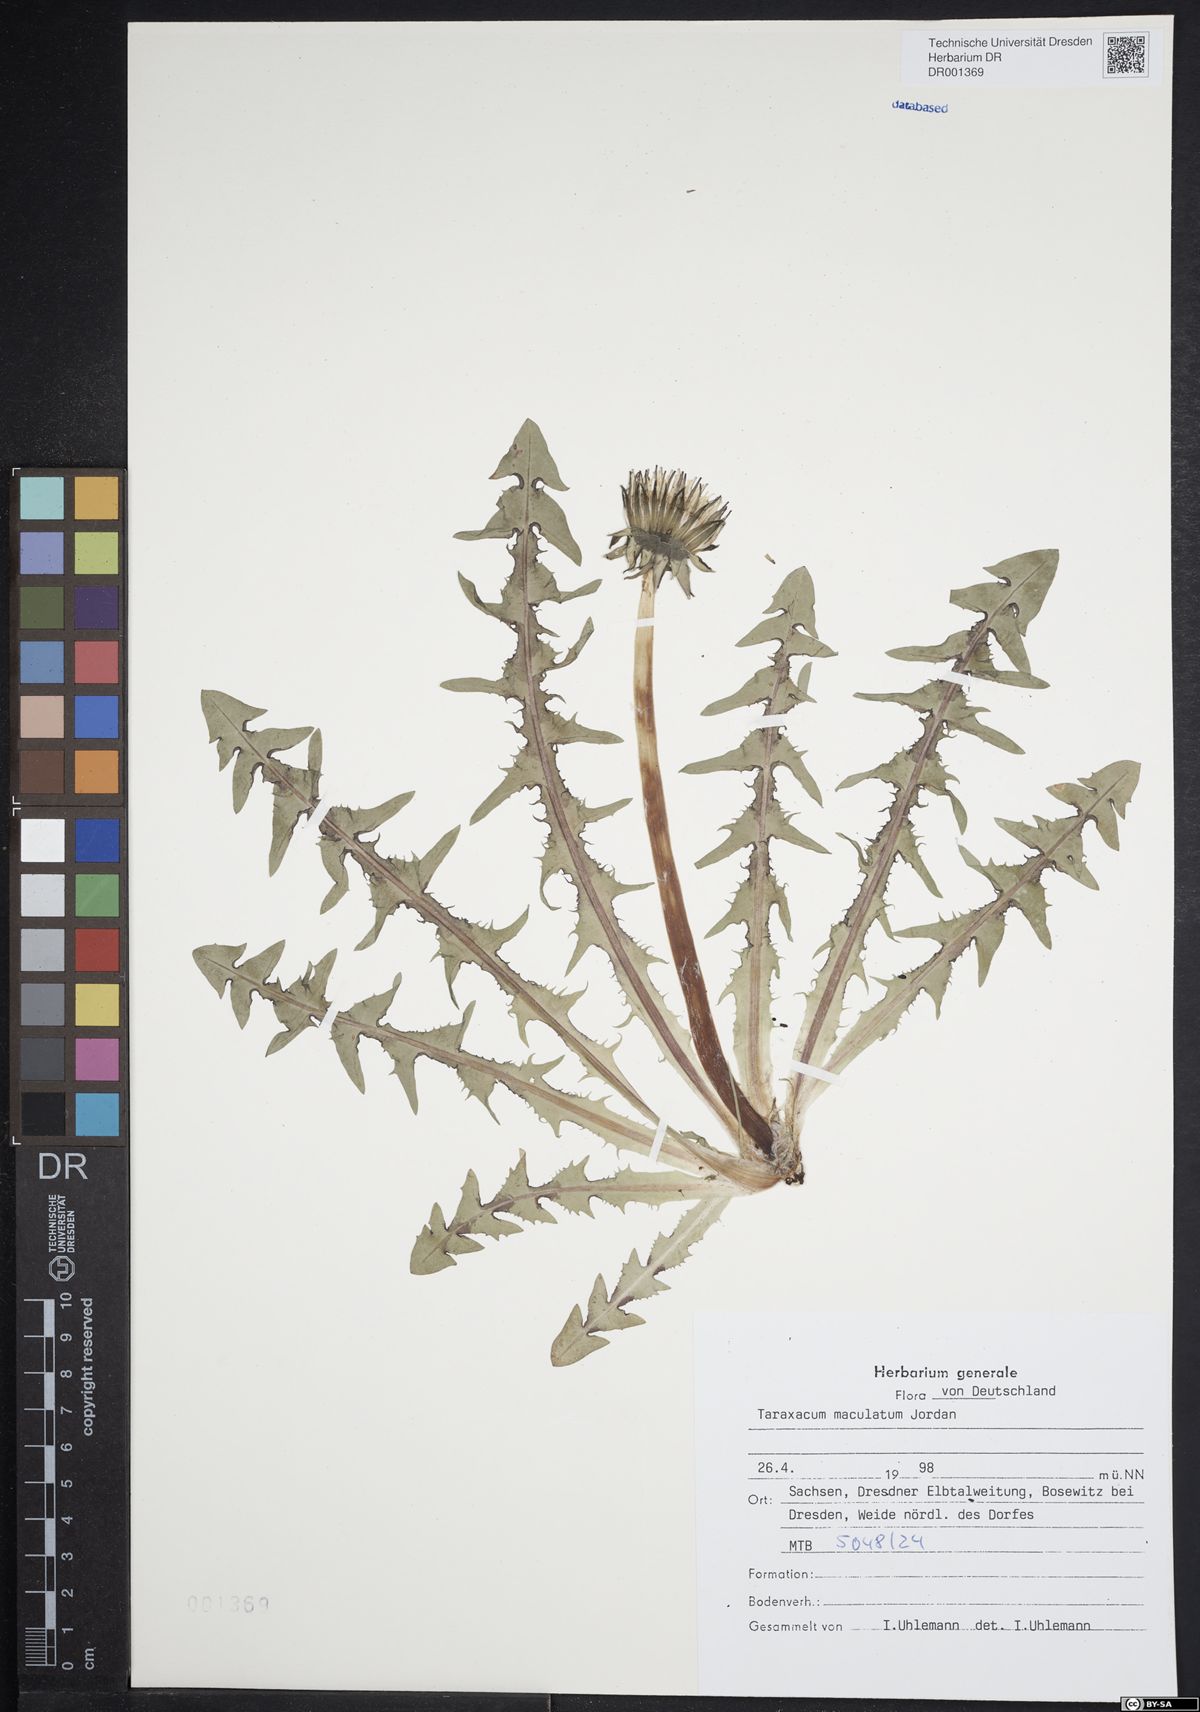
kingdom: Plantae
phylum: Tracheophyta
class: Magnoliopsida
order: Asterales
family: Asteraceae
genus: Taraxacum
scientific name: Taraxacum maculatum
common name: Yellowish-green dandelion
